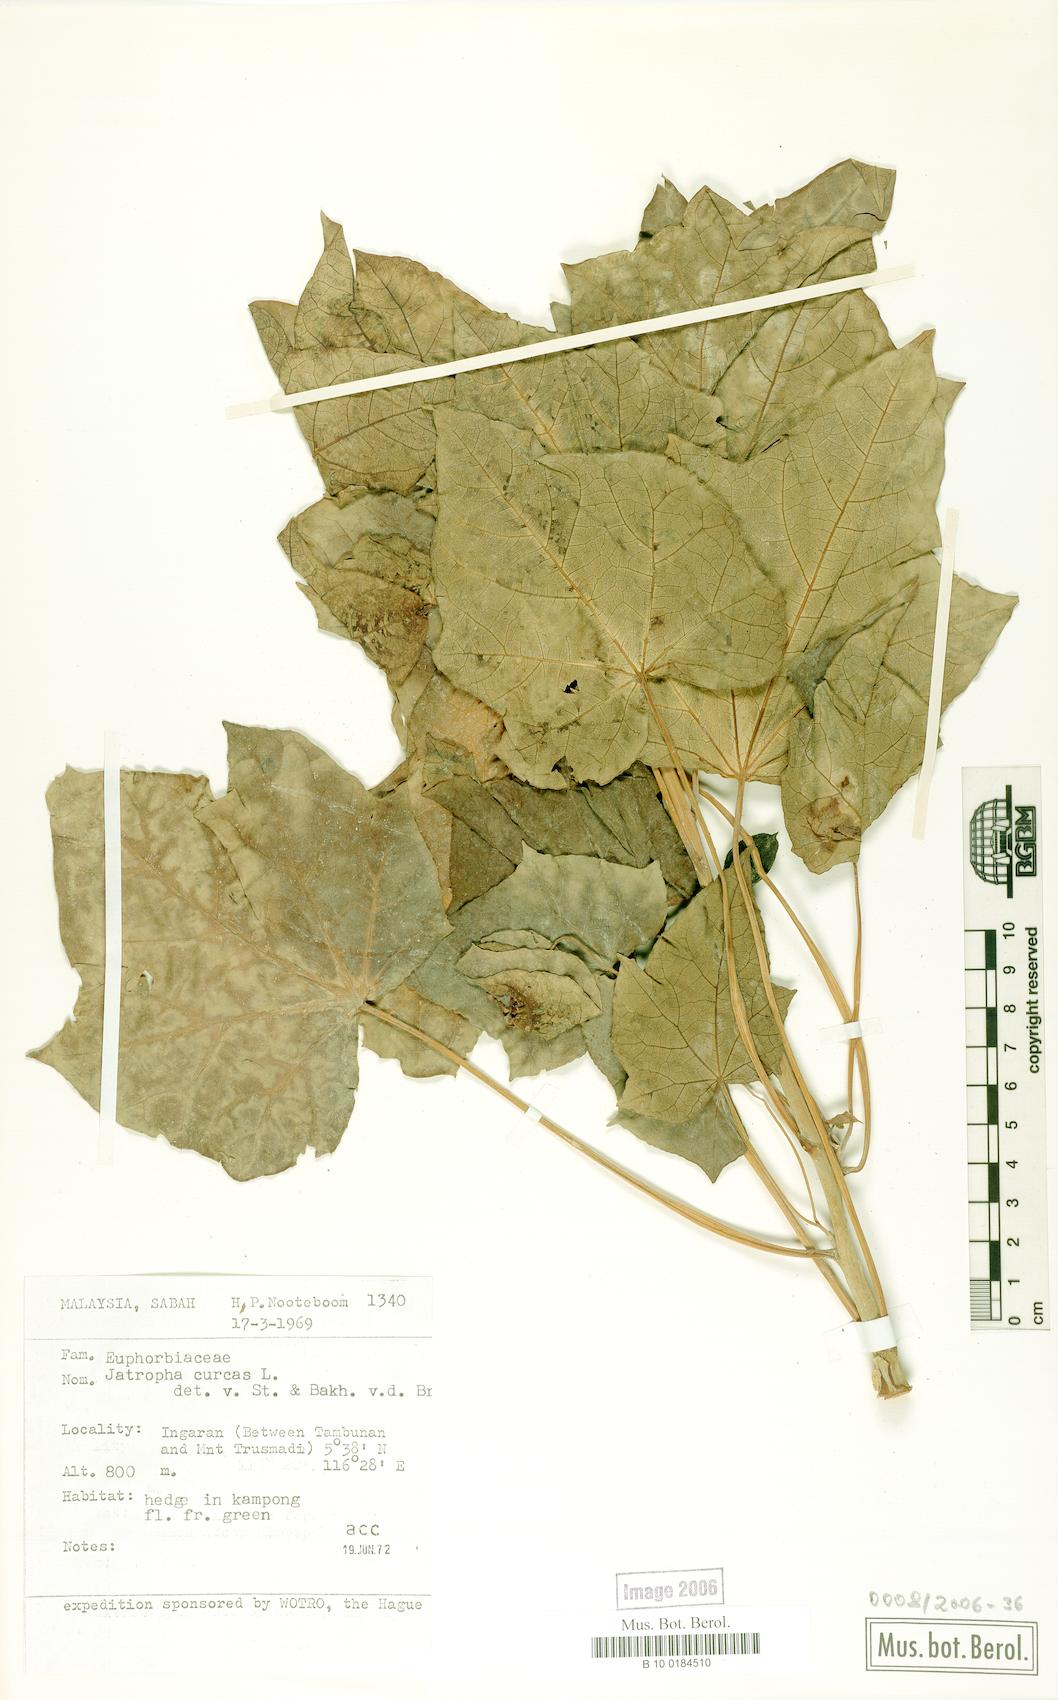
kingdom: Plantae
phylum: Tracheophyta
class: Magnoliopsida
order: Malpighiales
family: Euphorbiaceae
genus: Jatropha
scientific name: Jatropha curcas
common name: Barbados nut
